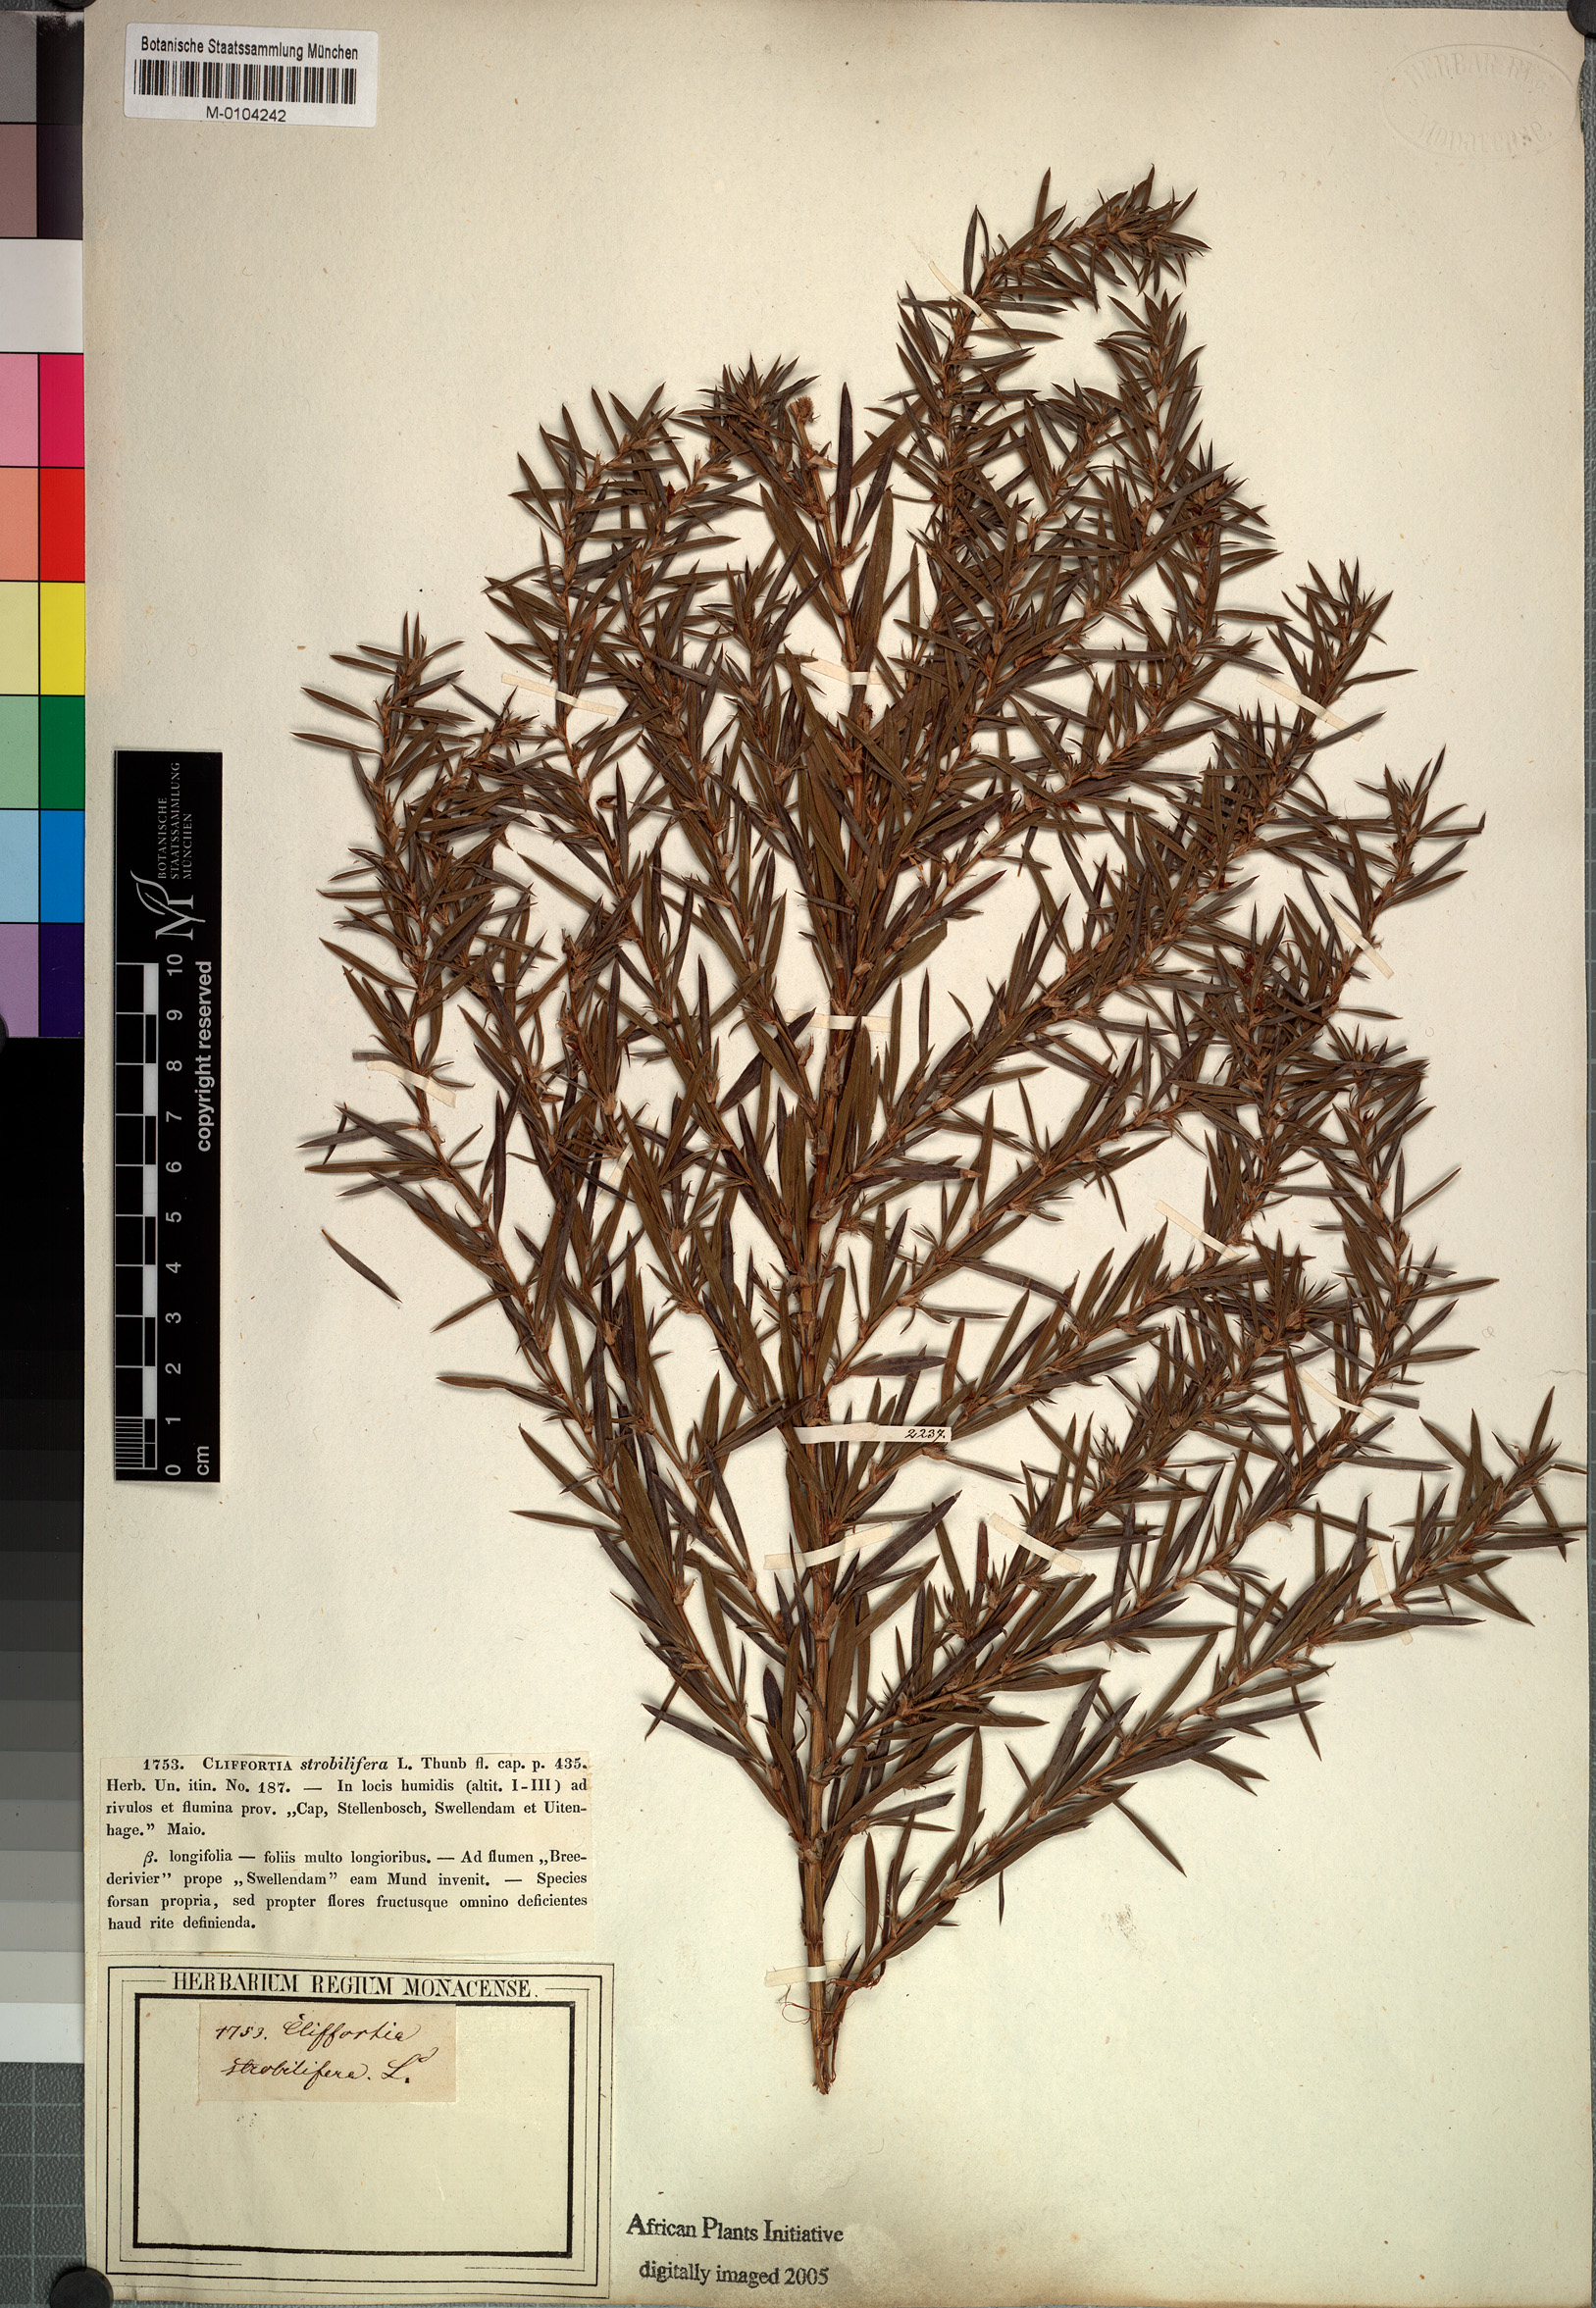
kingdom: Plantae
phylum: Tracheophyta
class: Magnoliopsida
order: Rosales
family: Rosaceae
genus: Cliffortia
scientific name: Cliffortia longifolia
